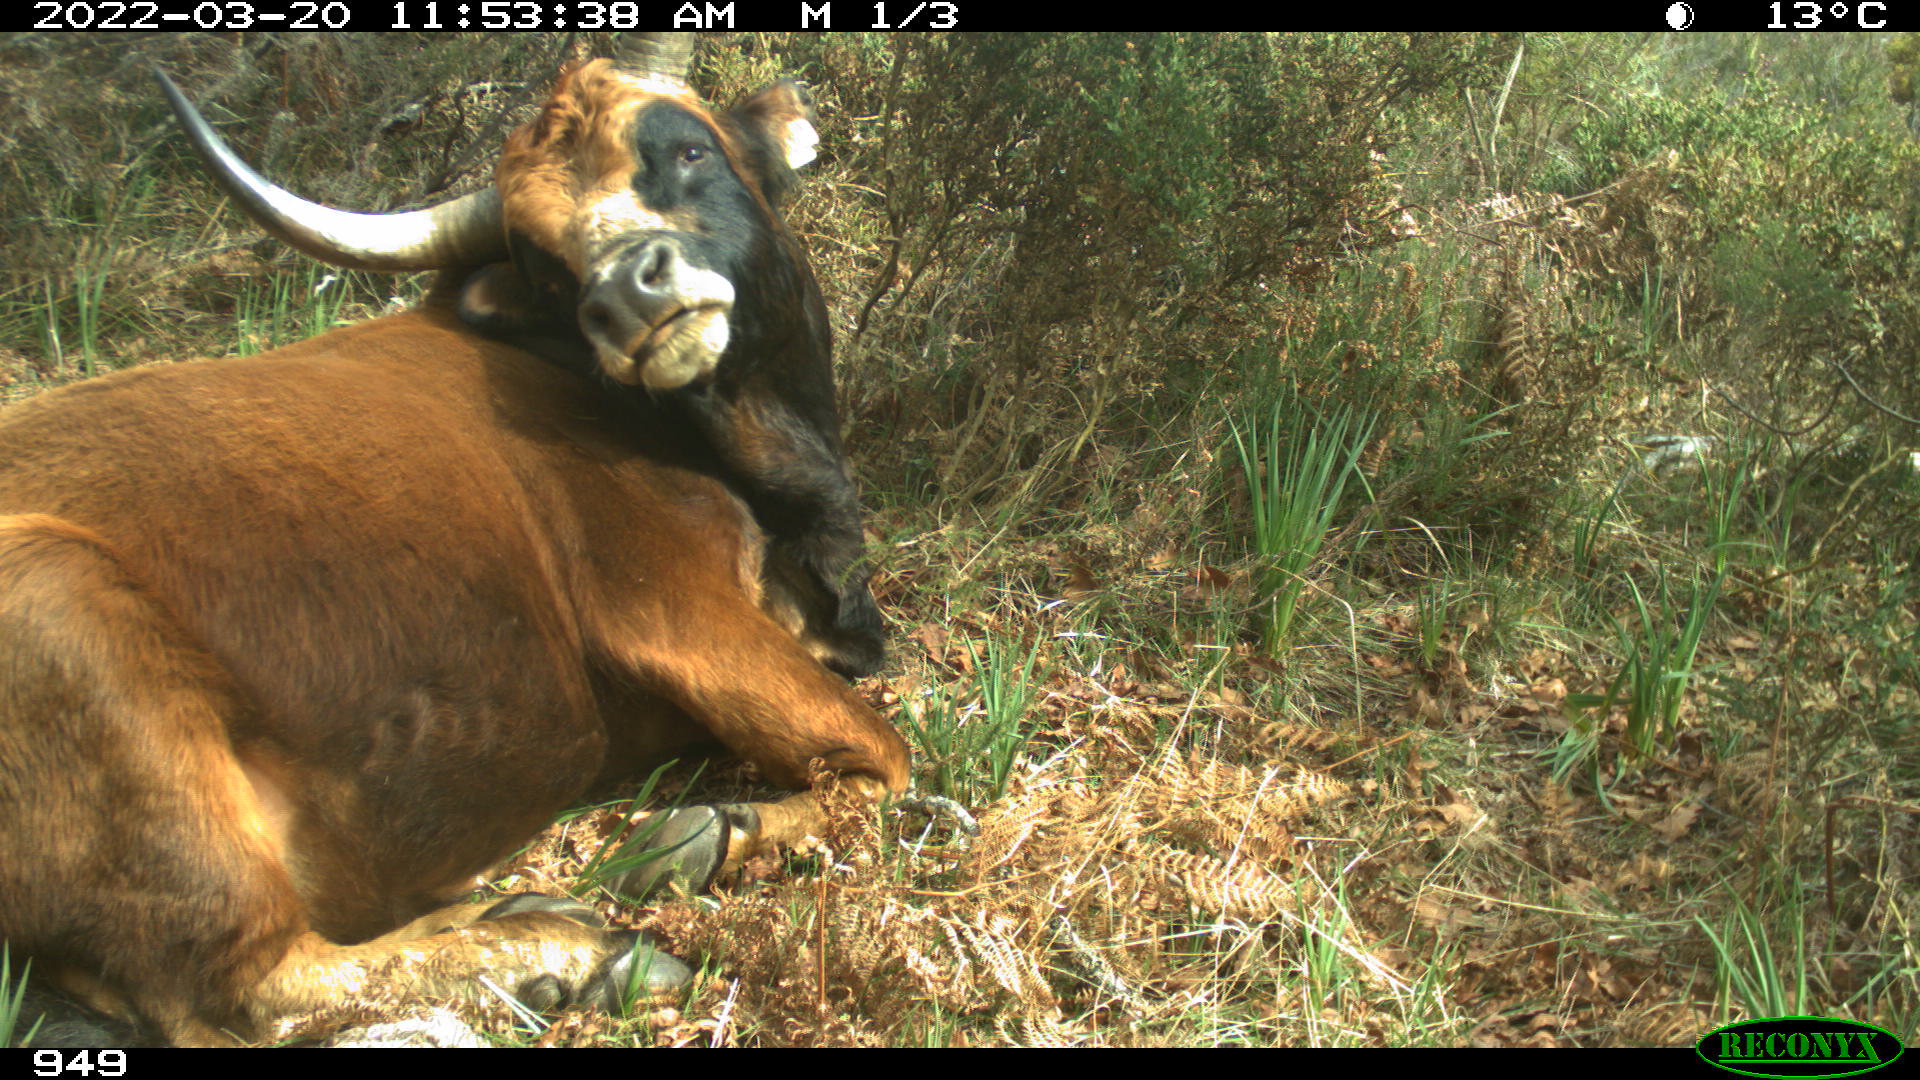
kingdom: Animalia
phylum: Chordata
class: Mammalia
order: Artiodactyla
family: Bovidae
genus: Bos
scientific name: Bos taurus
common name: Domesticated cattle
